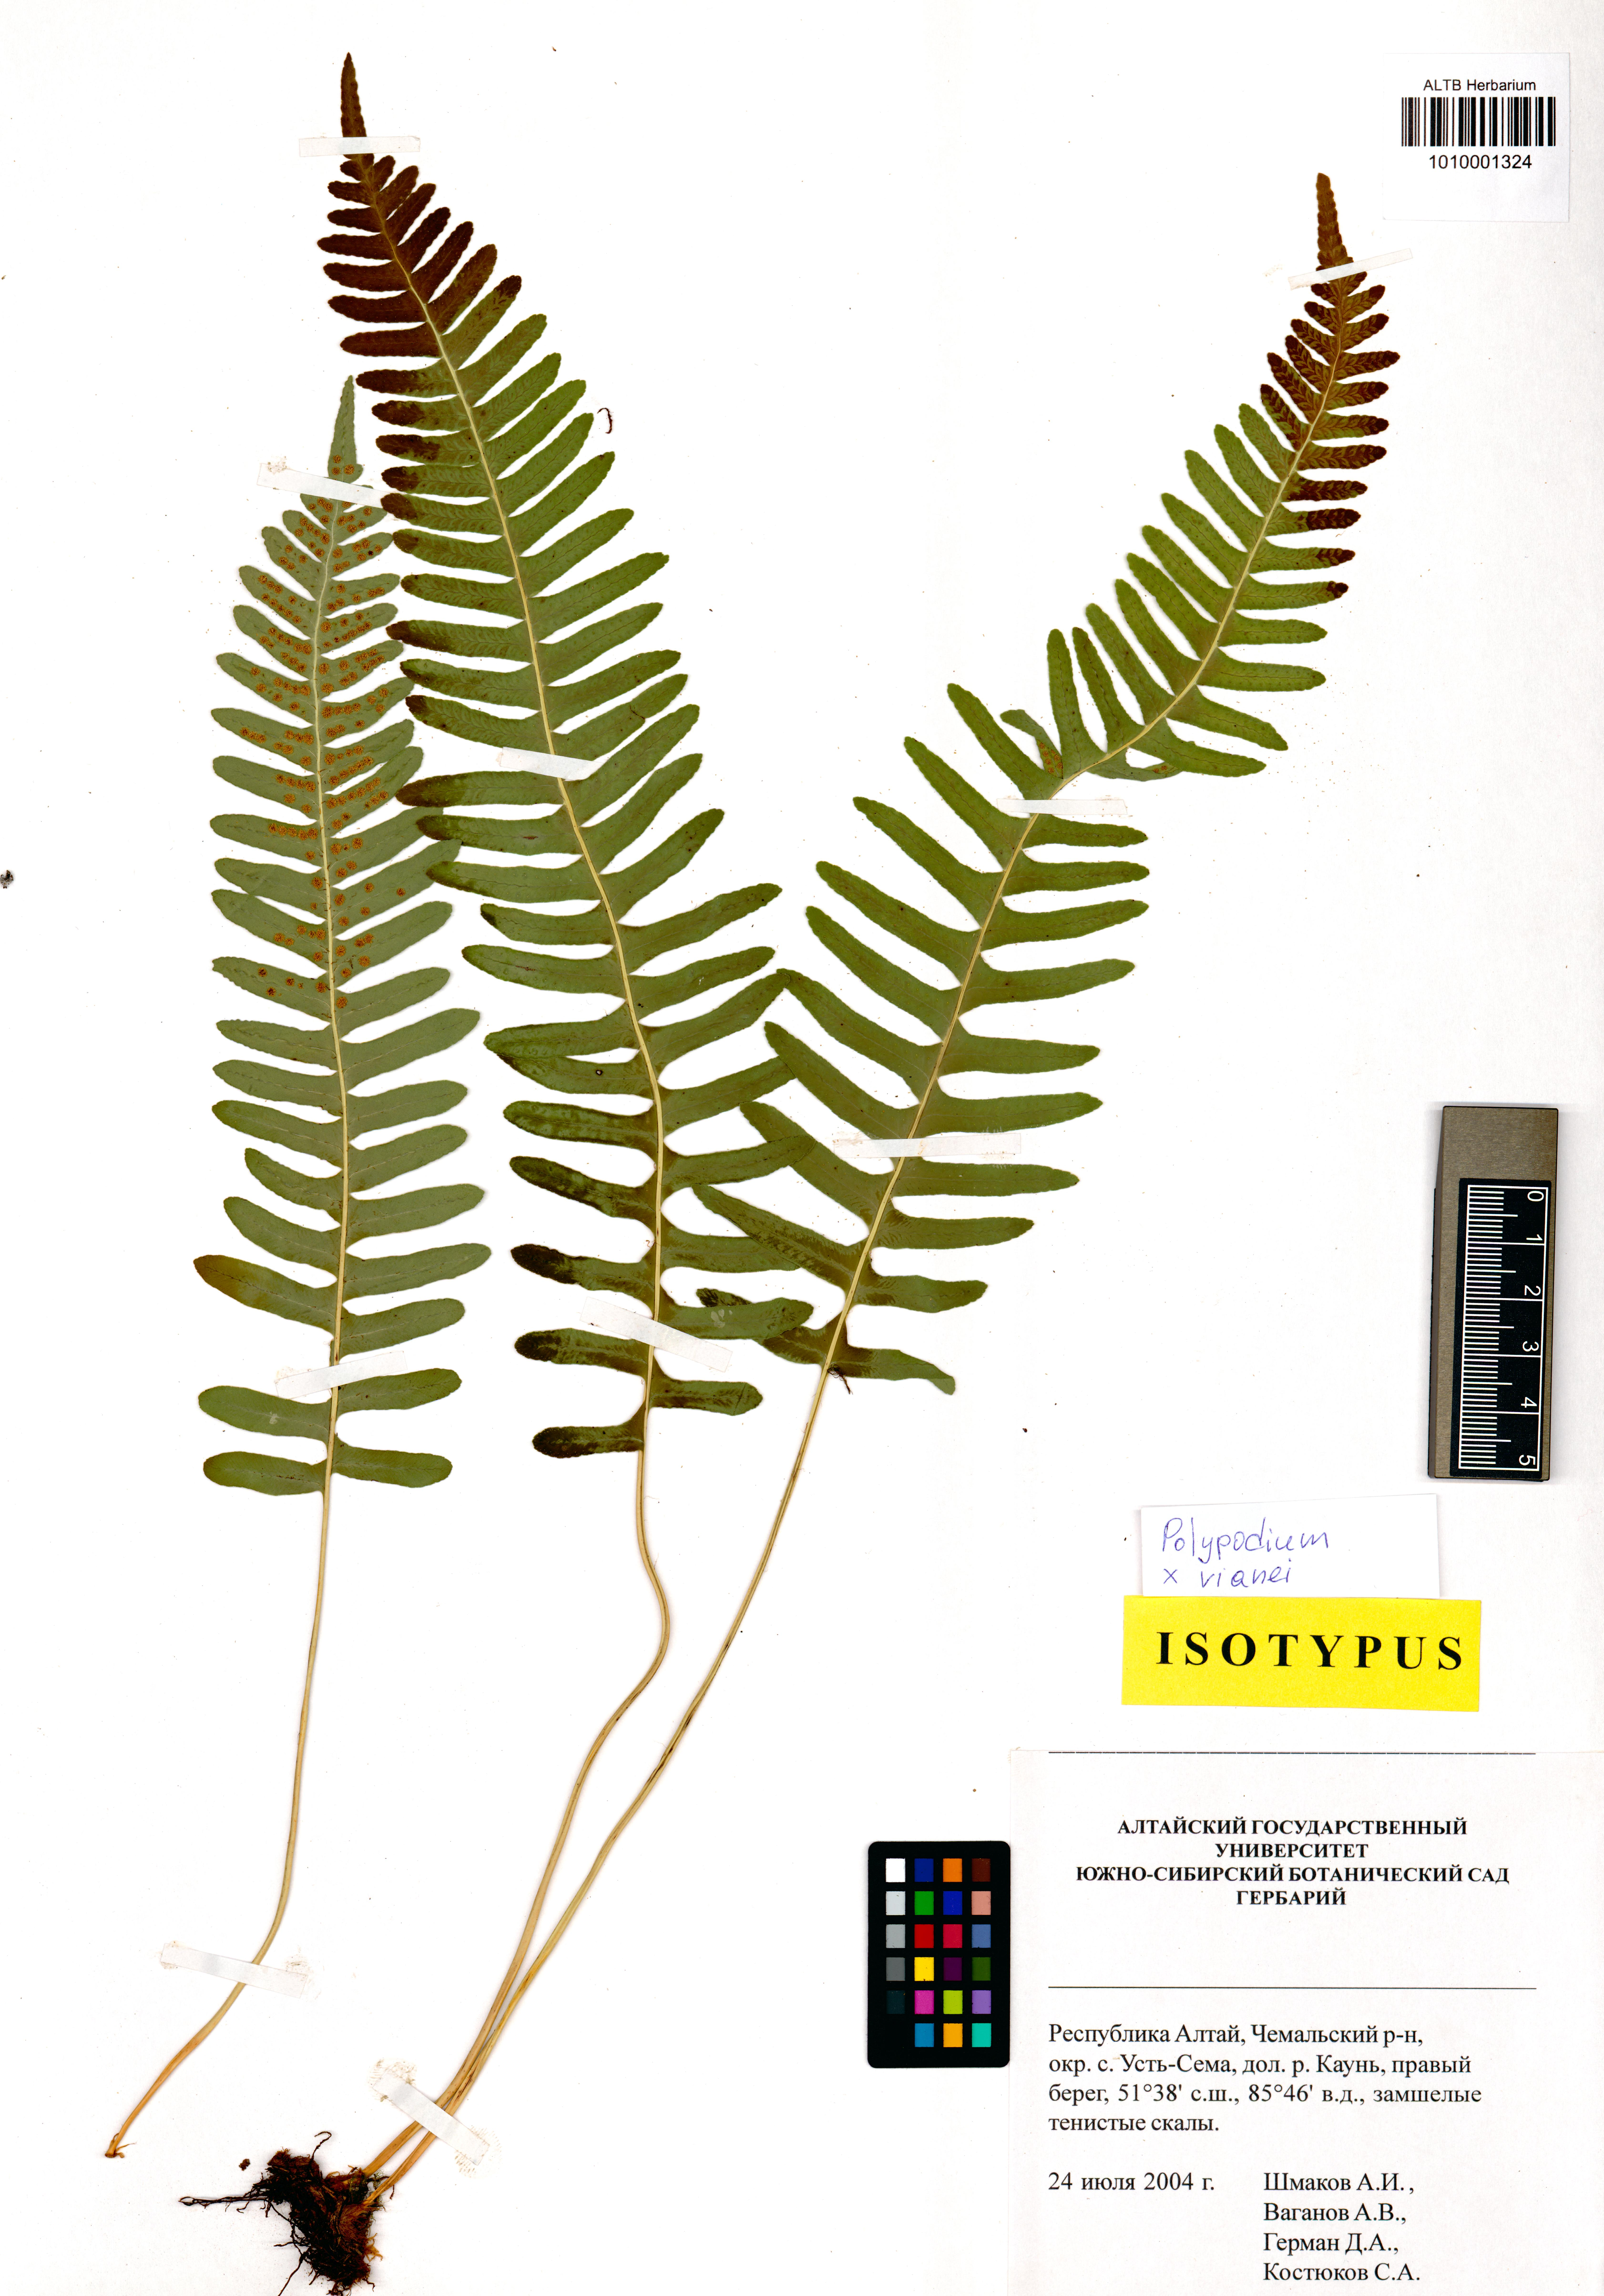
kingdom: Plantae
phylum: Tracheophyta
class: Polypodiopsida
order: Polypodiales
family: Polypodiaceae
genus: Polypodium
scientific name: Polypodium vianei
